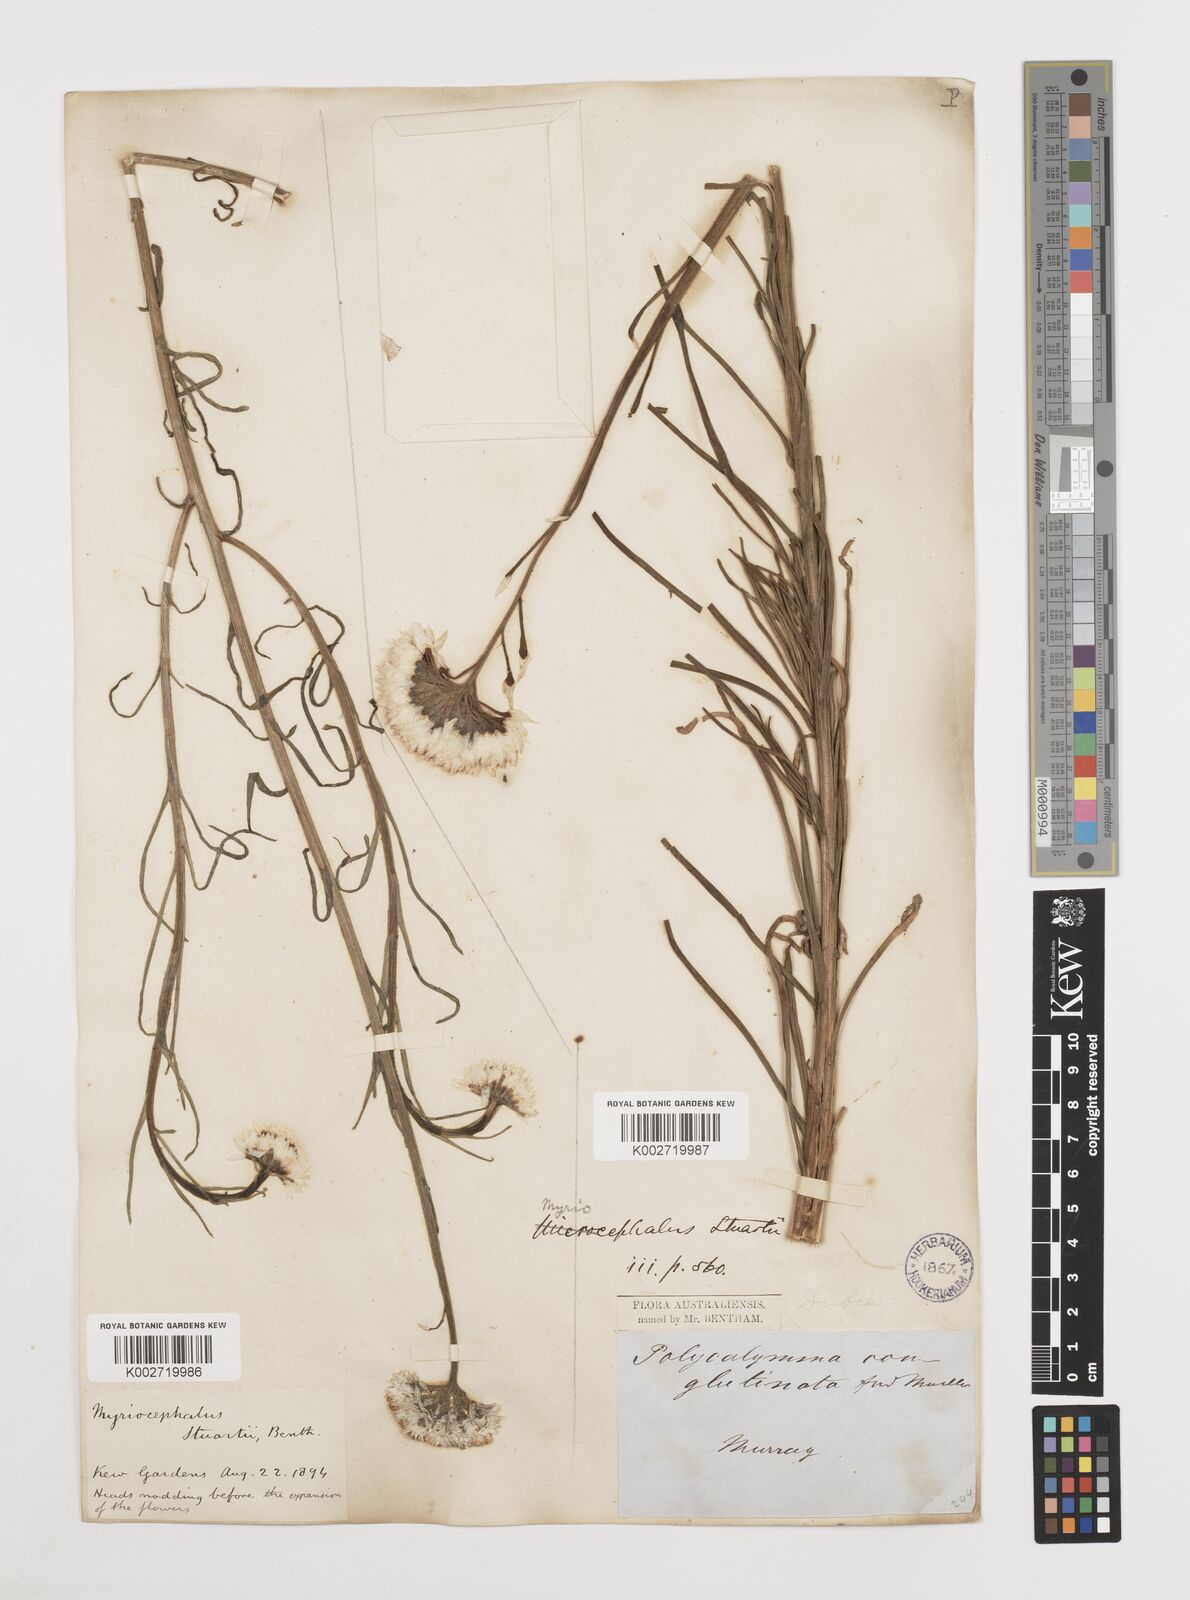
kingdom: Plantae
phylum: Tracheophyta
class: Magnoliopsida
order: Asterales
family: Asteraceae
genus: Polycalymma
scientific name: Polycalymma stuartii
